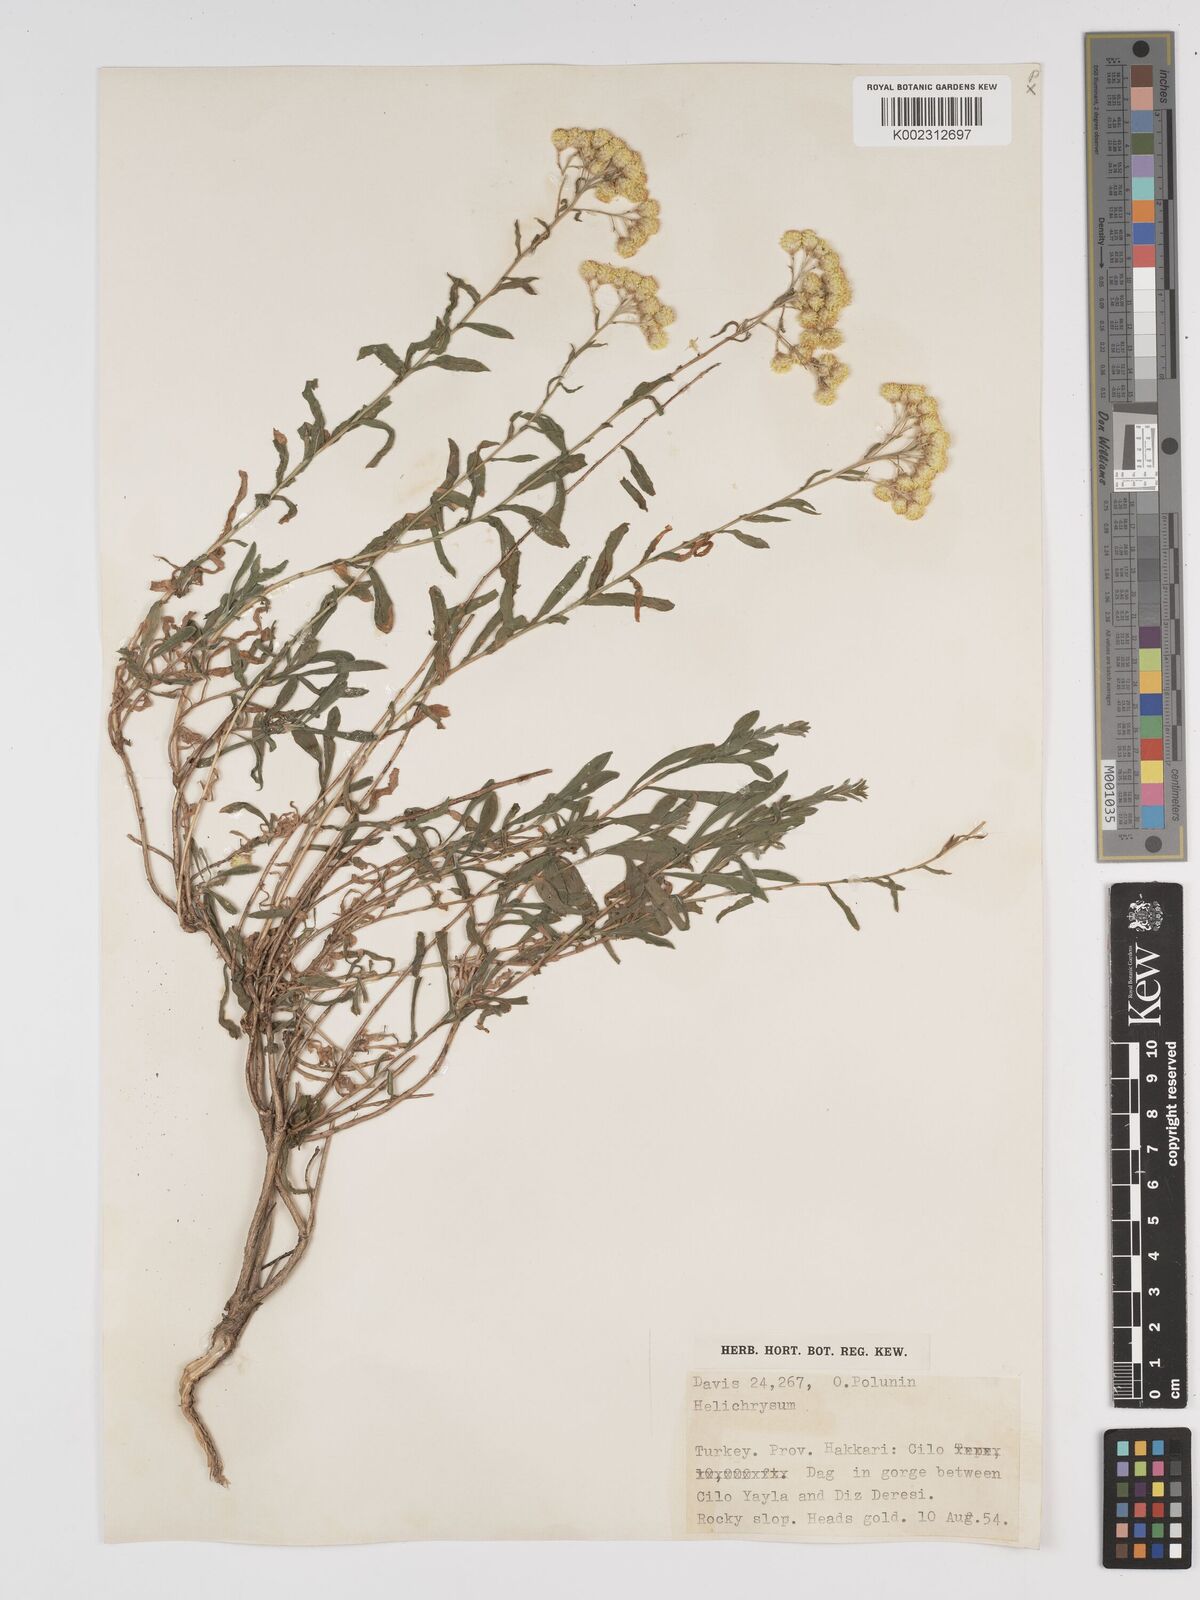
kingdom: Plantae
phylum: Tracheophyta
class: Magnoliopsida
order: Asterales
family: Asteraceae
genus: Helichrysum
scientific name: Helichrysum armenium
